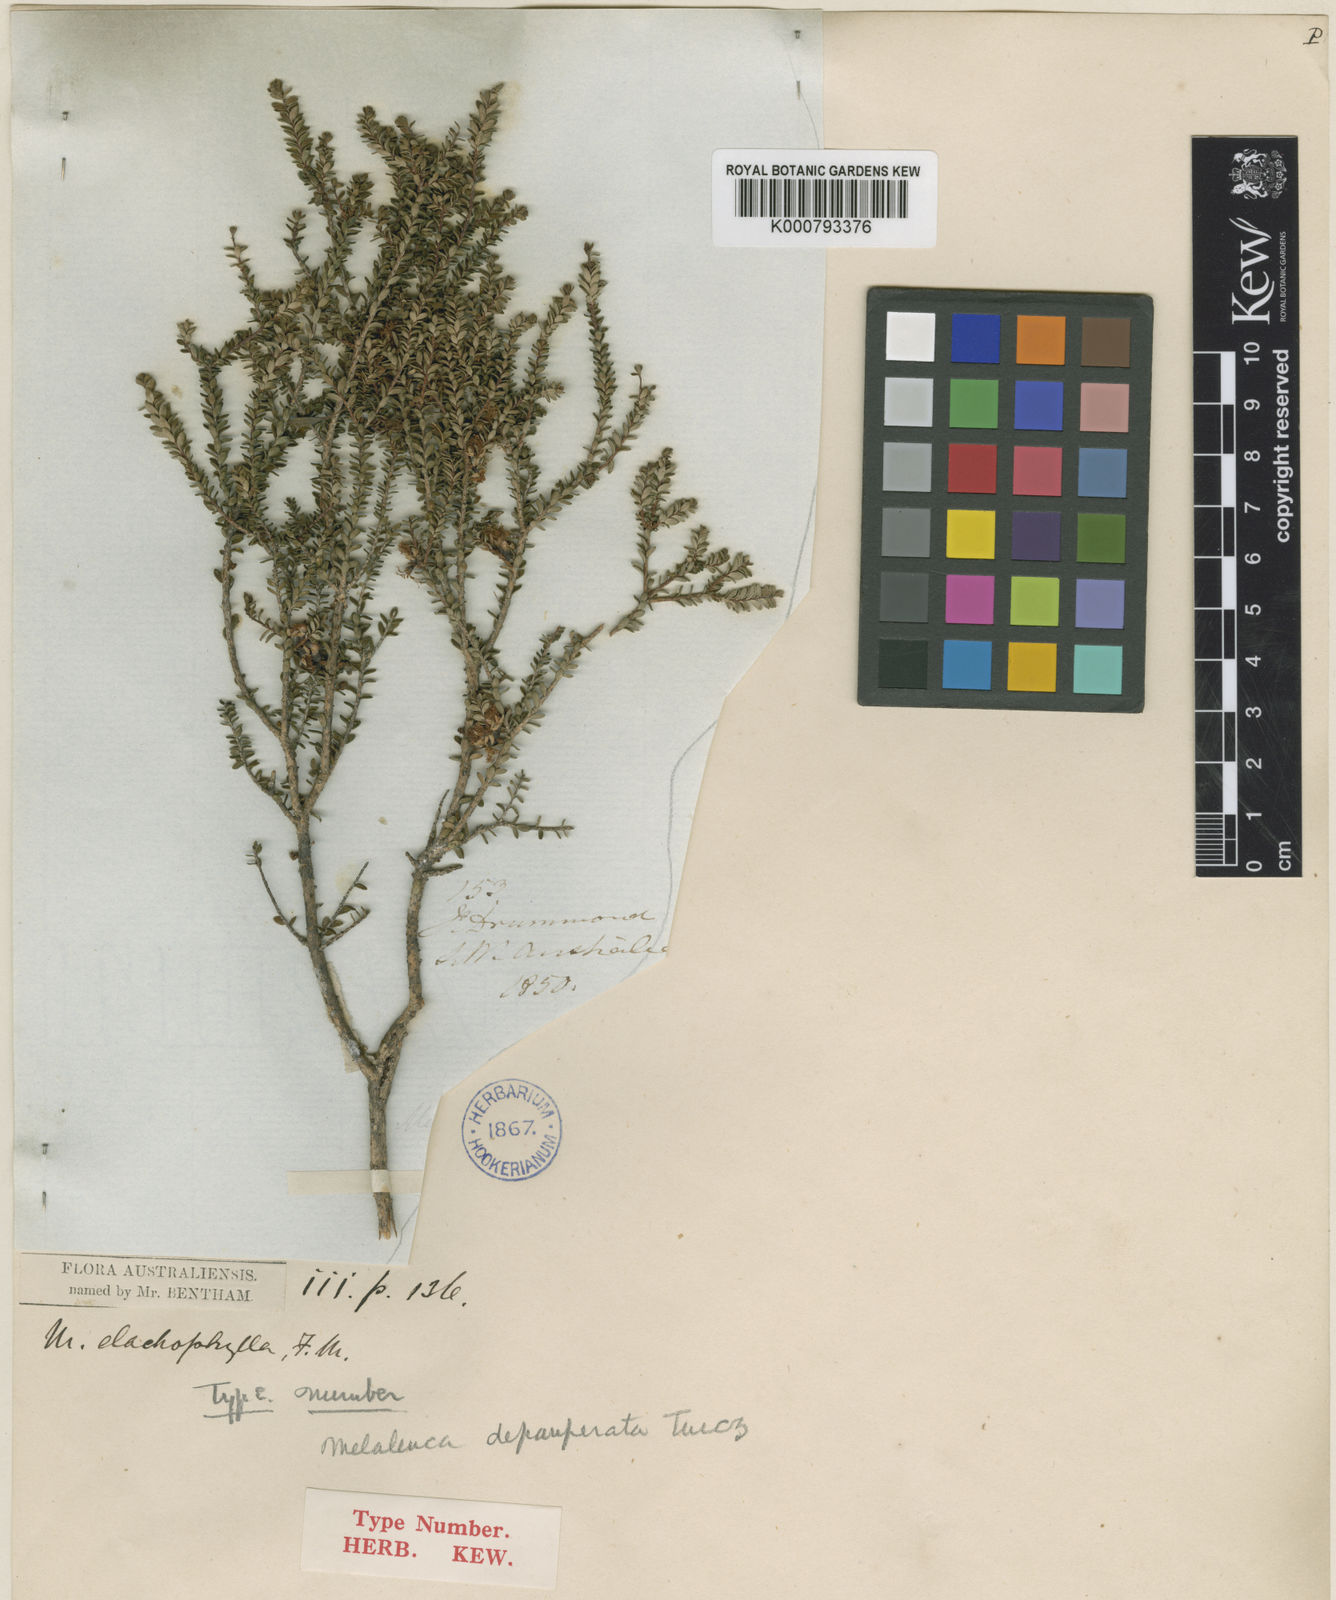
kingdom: Plantae
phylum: Tracheophyta
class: Magnoliopsida
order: Myrtales
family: Myrtaceae
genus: Melaleuca
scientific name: Melaleuca depauperata
